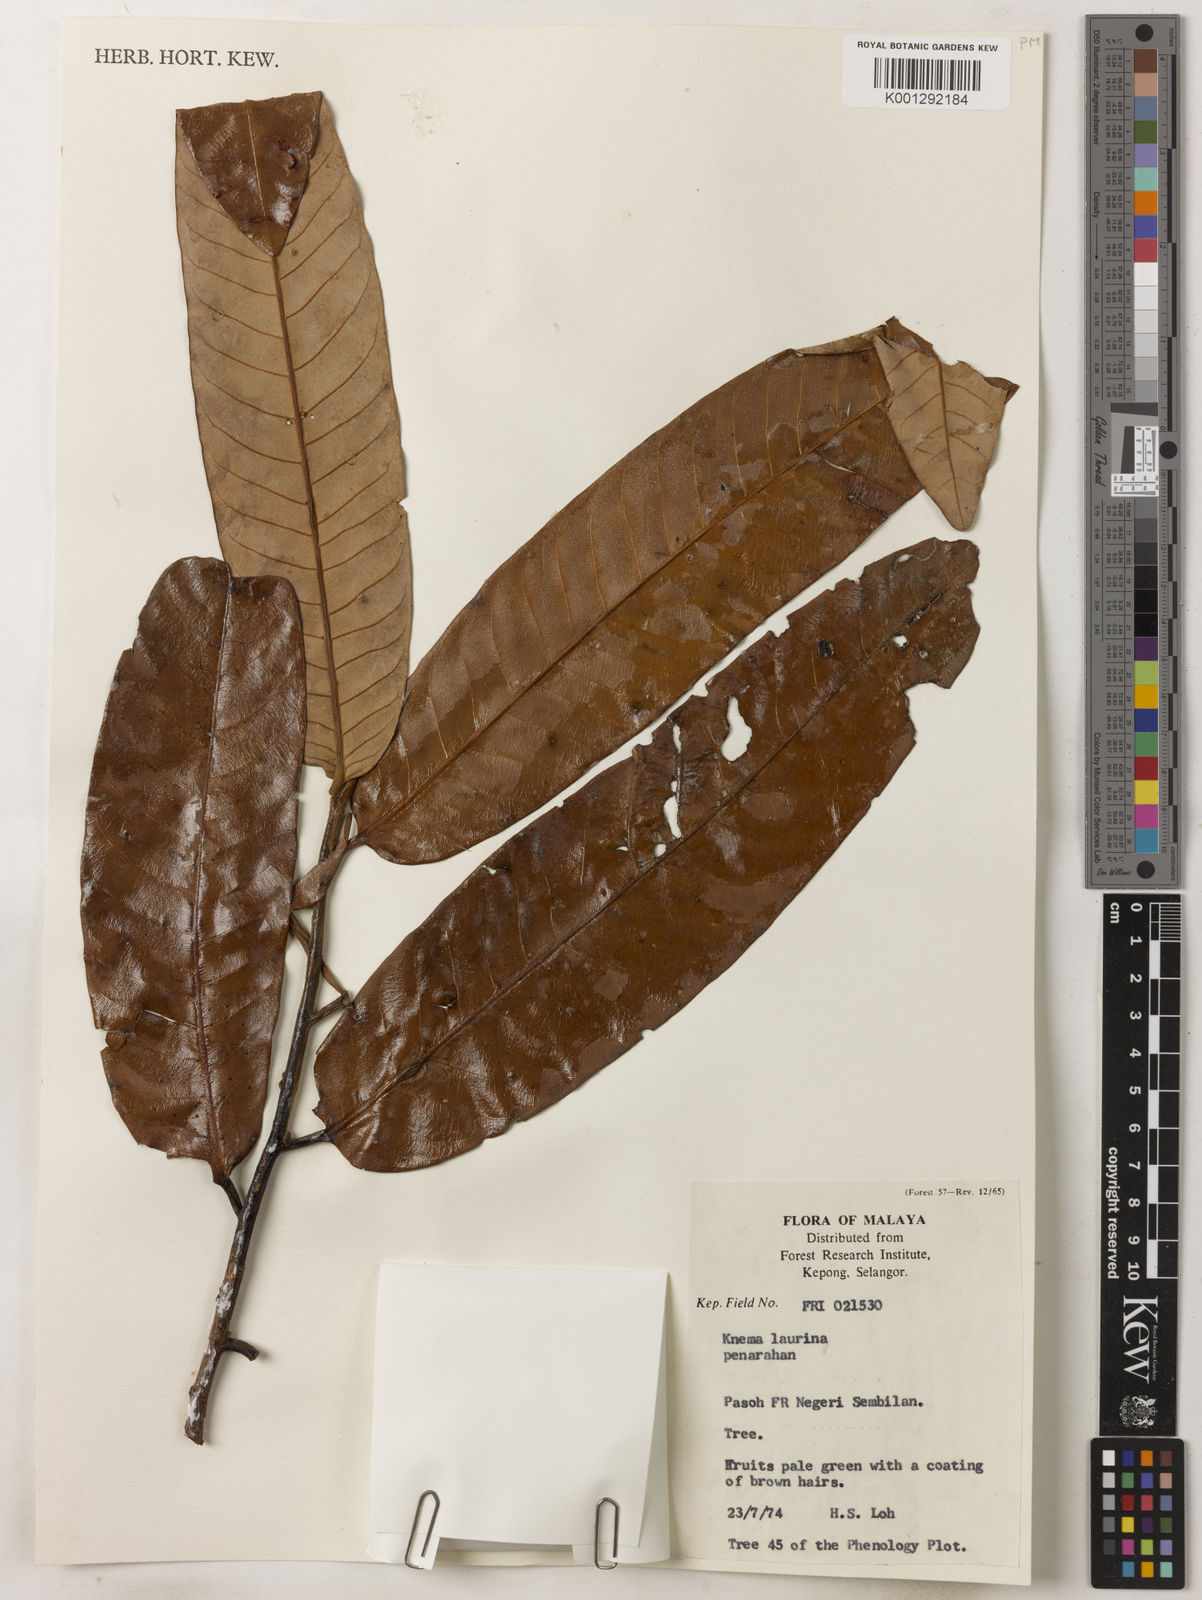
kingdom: Plantae
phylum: Tracheophyta
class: Magnoliopsida
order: Magnoliales
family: Myristicaceae
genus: Knema
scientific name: Knema laurina
